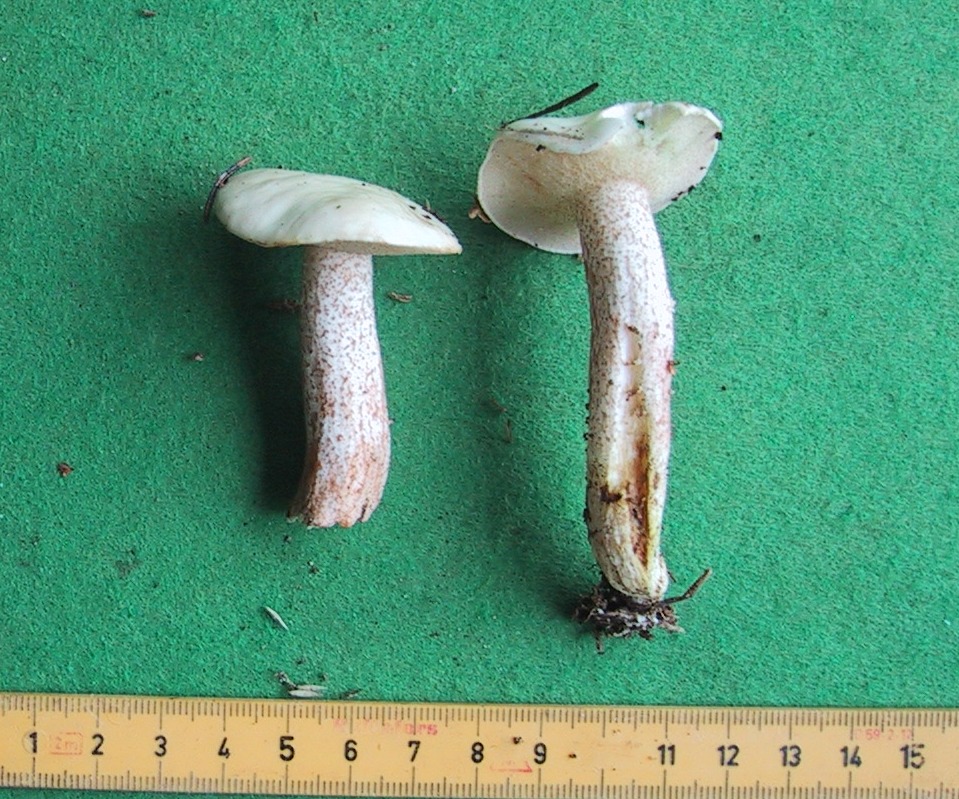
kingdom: Fungi
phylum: Basidiomycota
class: Agaricomycetes
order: Boletales
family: Suillaceae
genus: Suillus
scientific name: Suillus placidus
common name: elfenbens-slimrørhat
